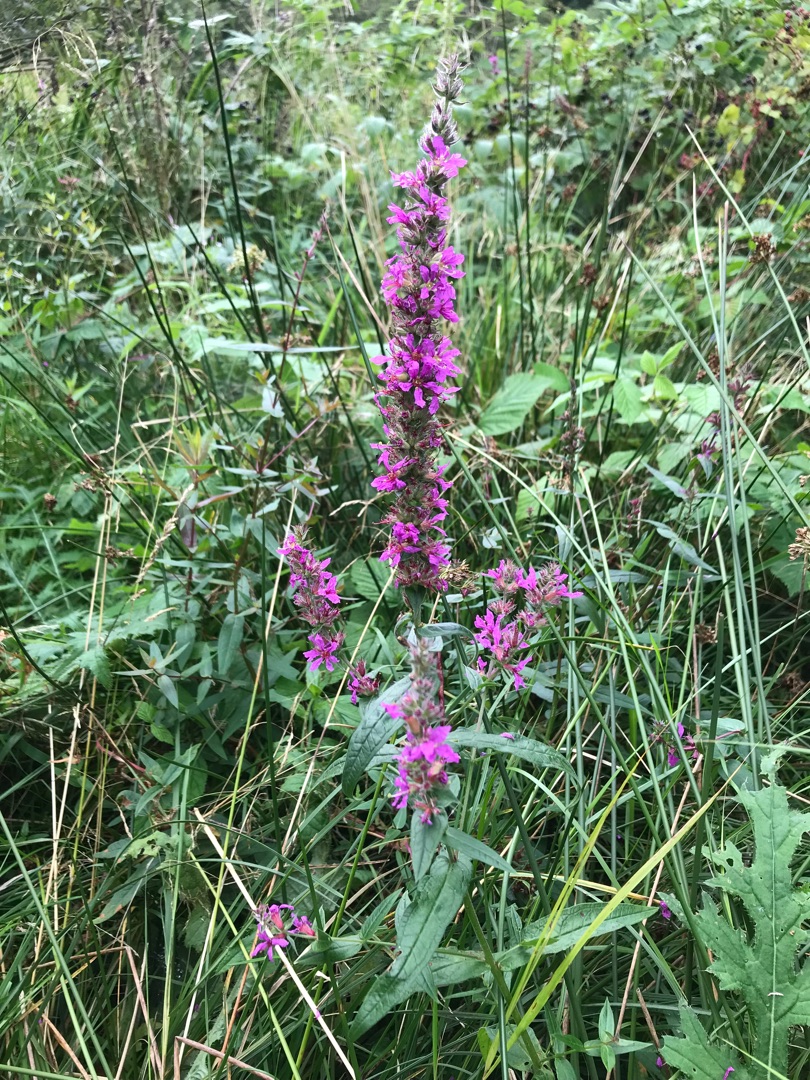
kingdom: Plantae
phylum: Tracheophyta
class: Magnoliopsida
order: Myrtales
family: Lythraceae
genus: Lythrum
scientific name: Lythrum salicaria
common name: Kattehale
